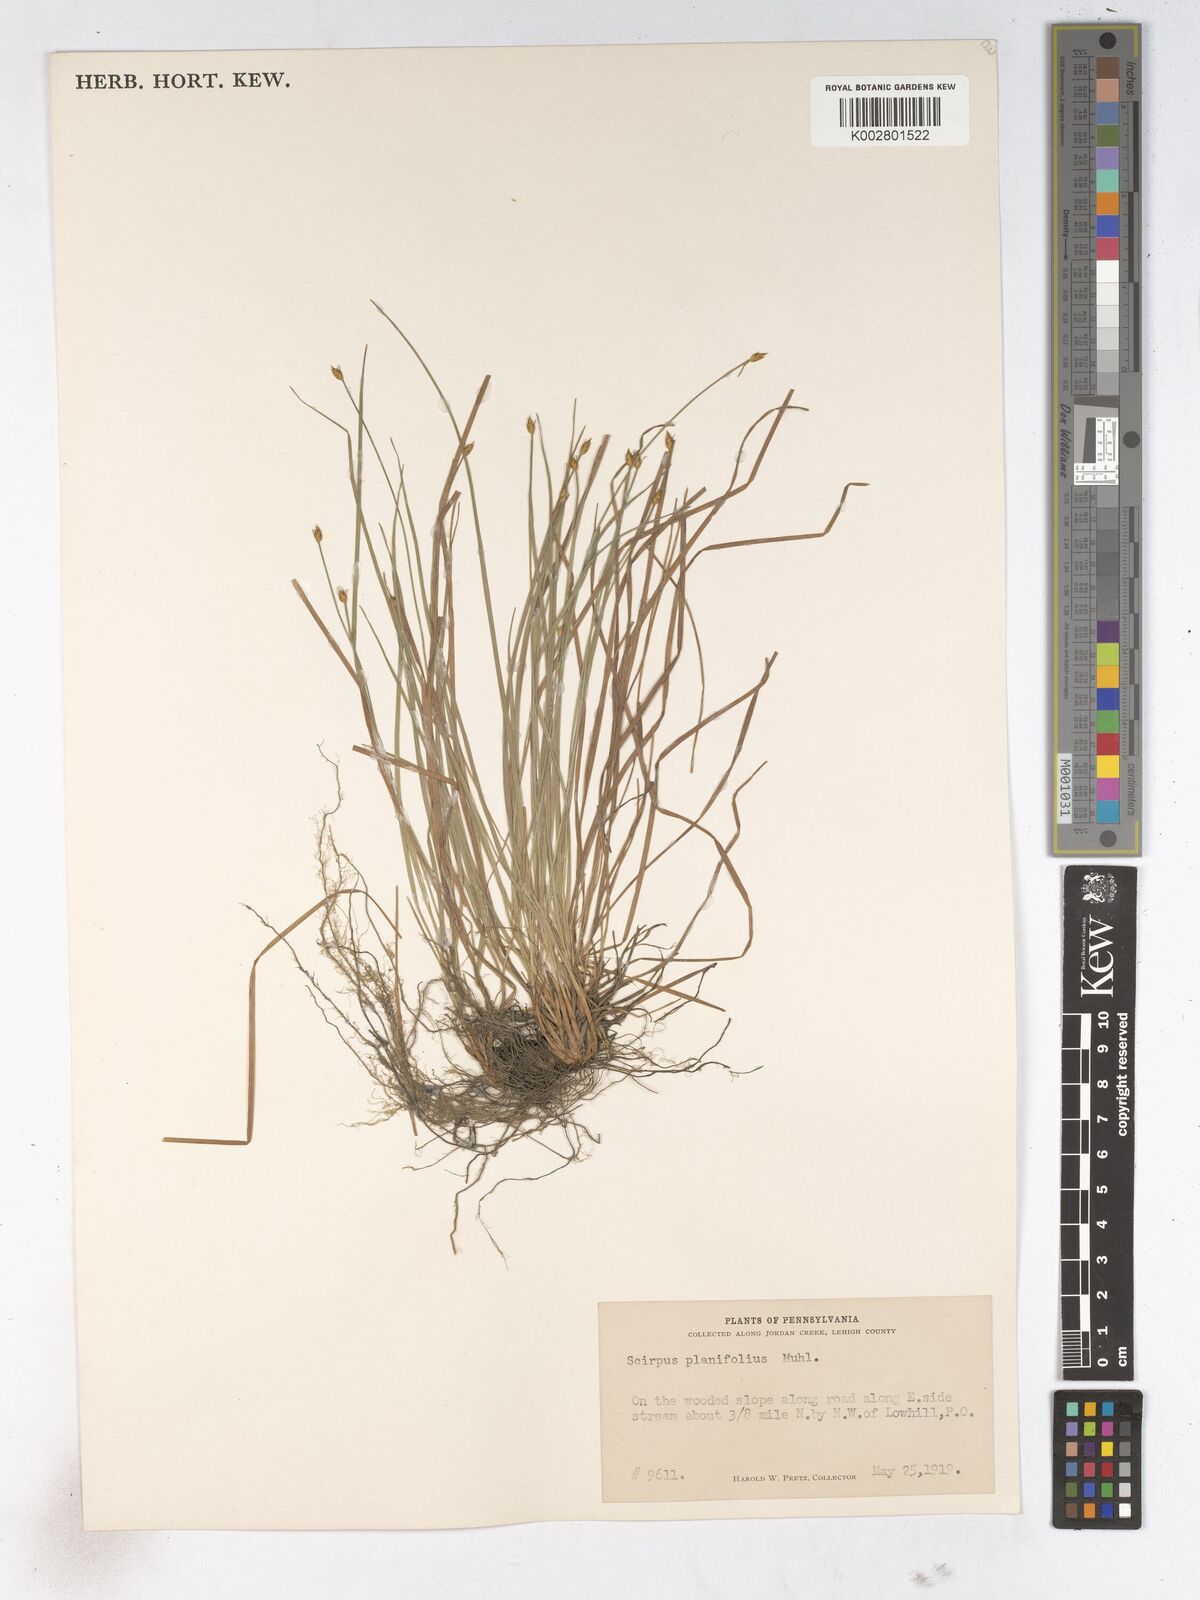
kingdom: Plantae
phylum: Tracheophyta
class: Liliopsida
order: Poales
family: Cyperaceae
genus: Trichophorum
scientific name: Trichophorum planifolium
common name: Bashful bulrush
